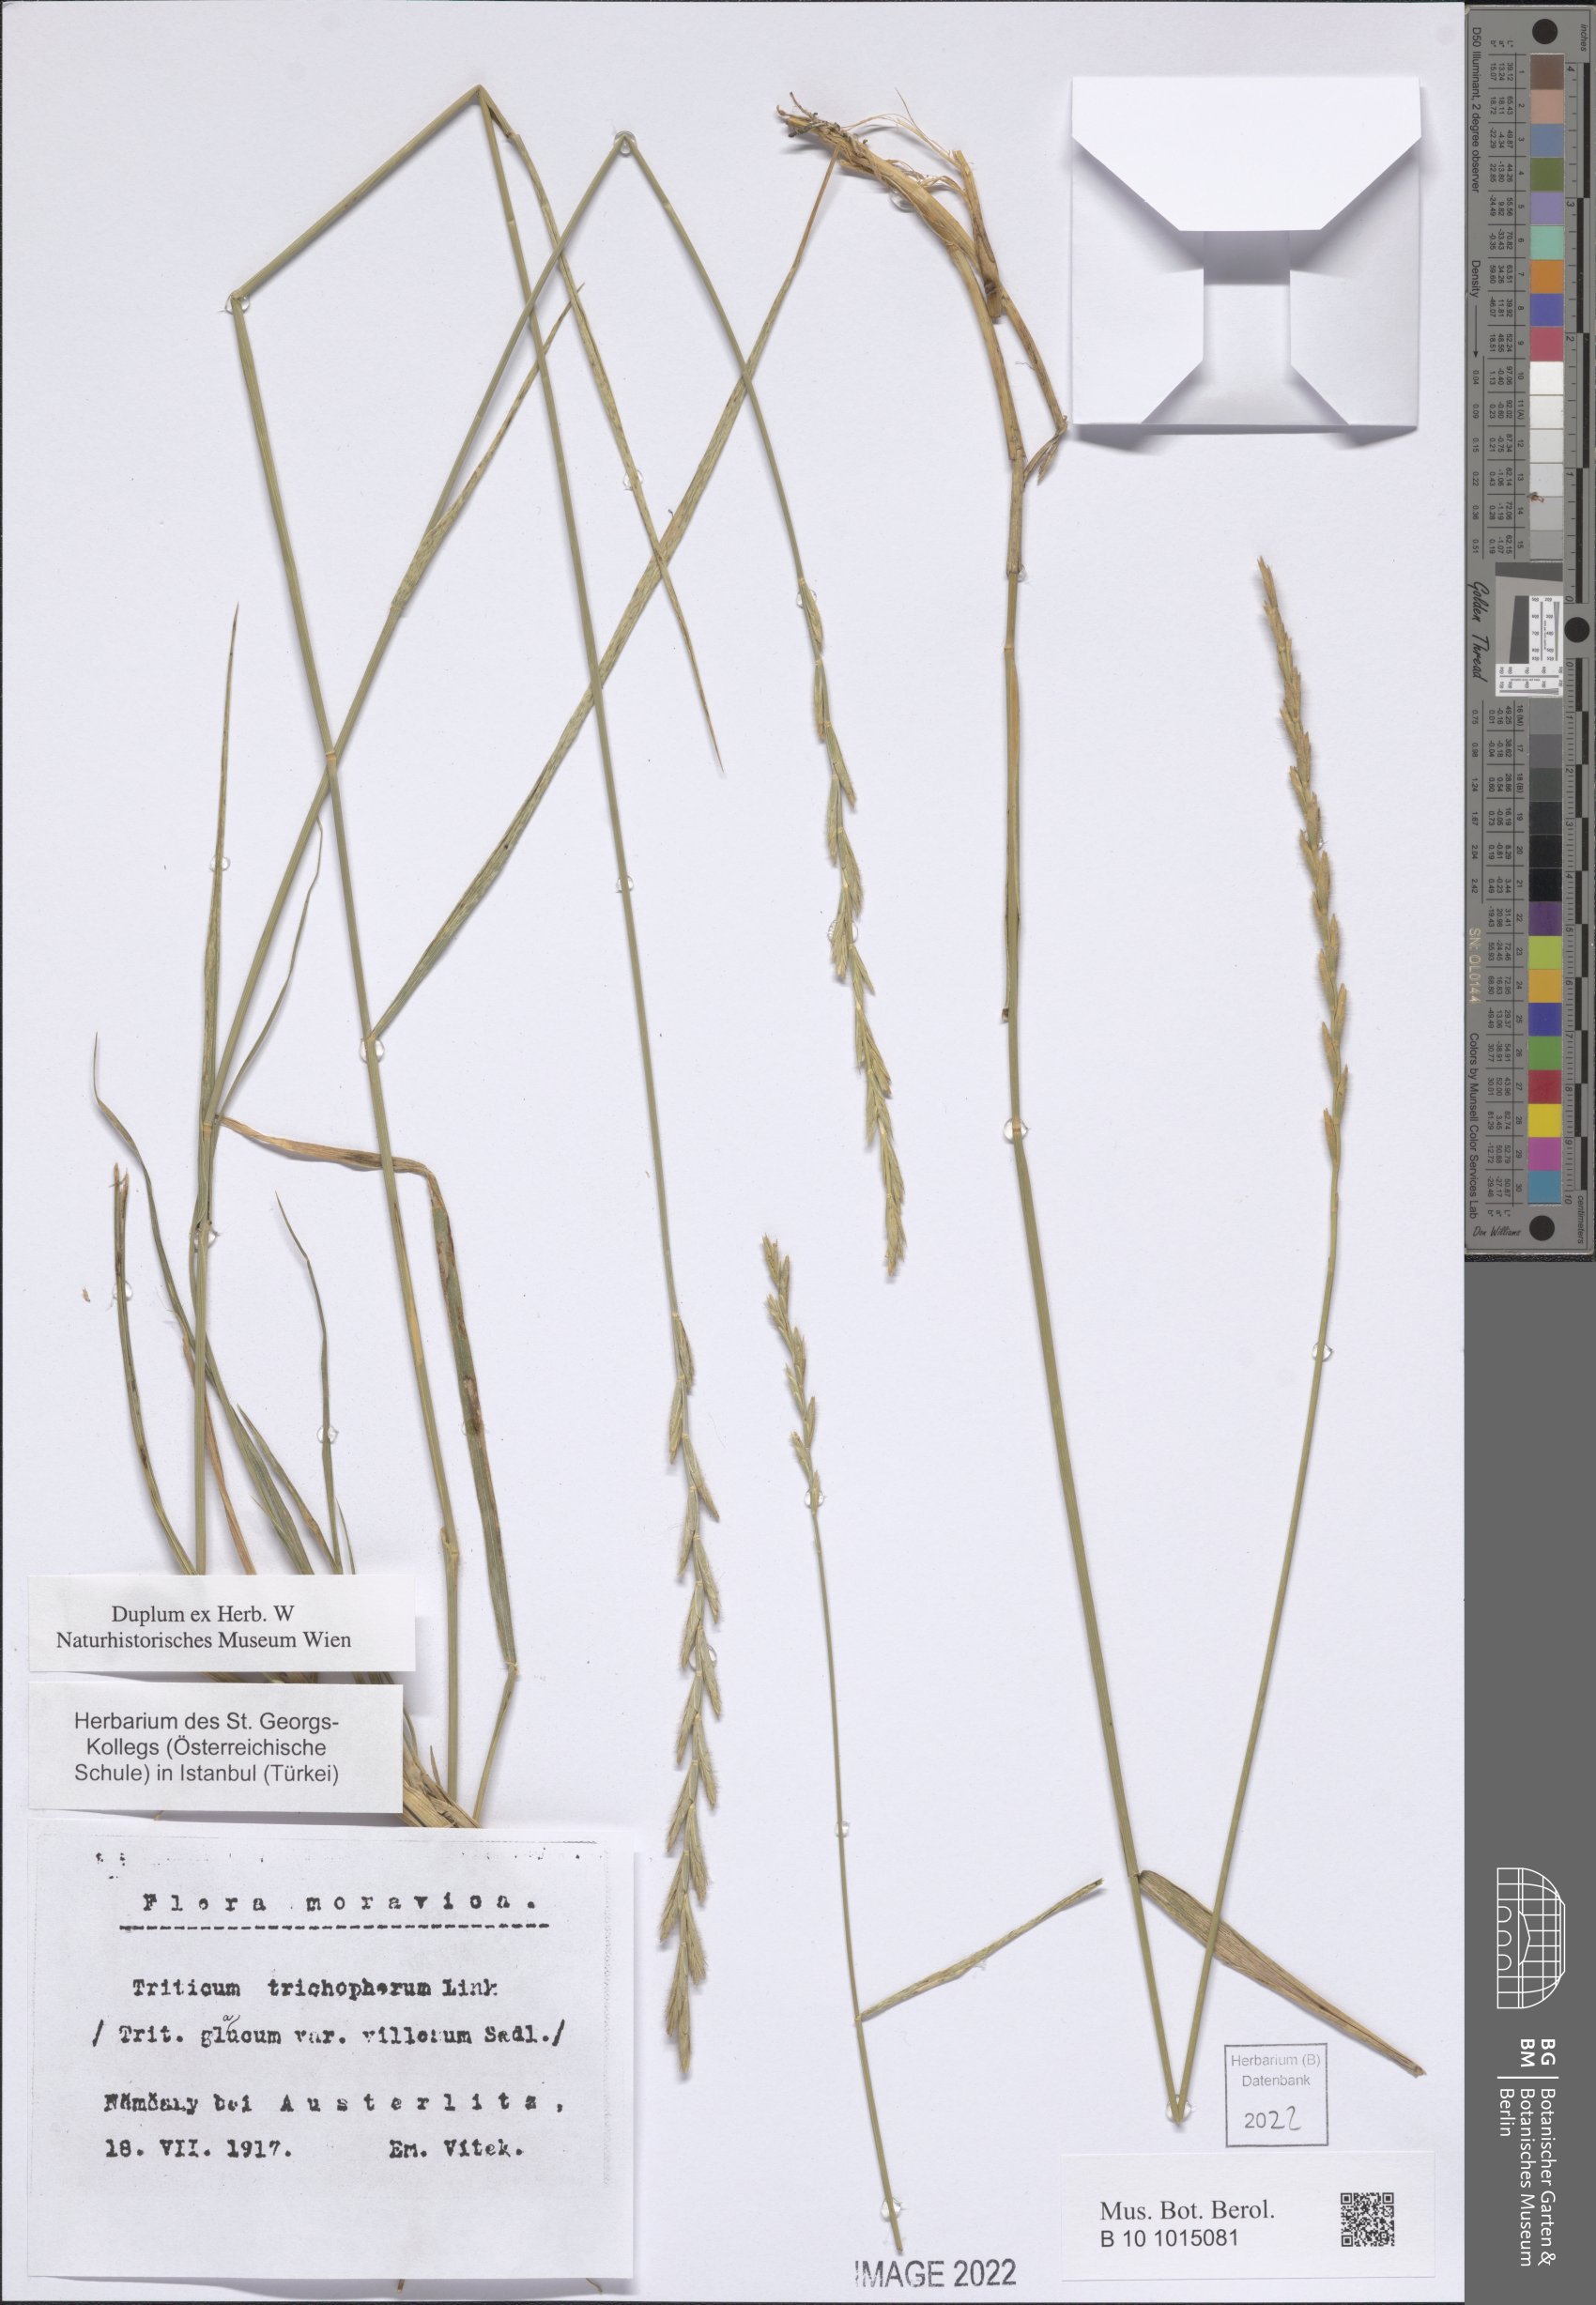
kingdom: Plantae
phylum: Tracheophyta
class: Liliopsida
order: Poales
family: Poaceae
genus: Thinopyrum
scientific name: Thinopyrum intermedium
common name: Intermediate wheatgrass
